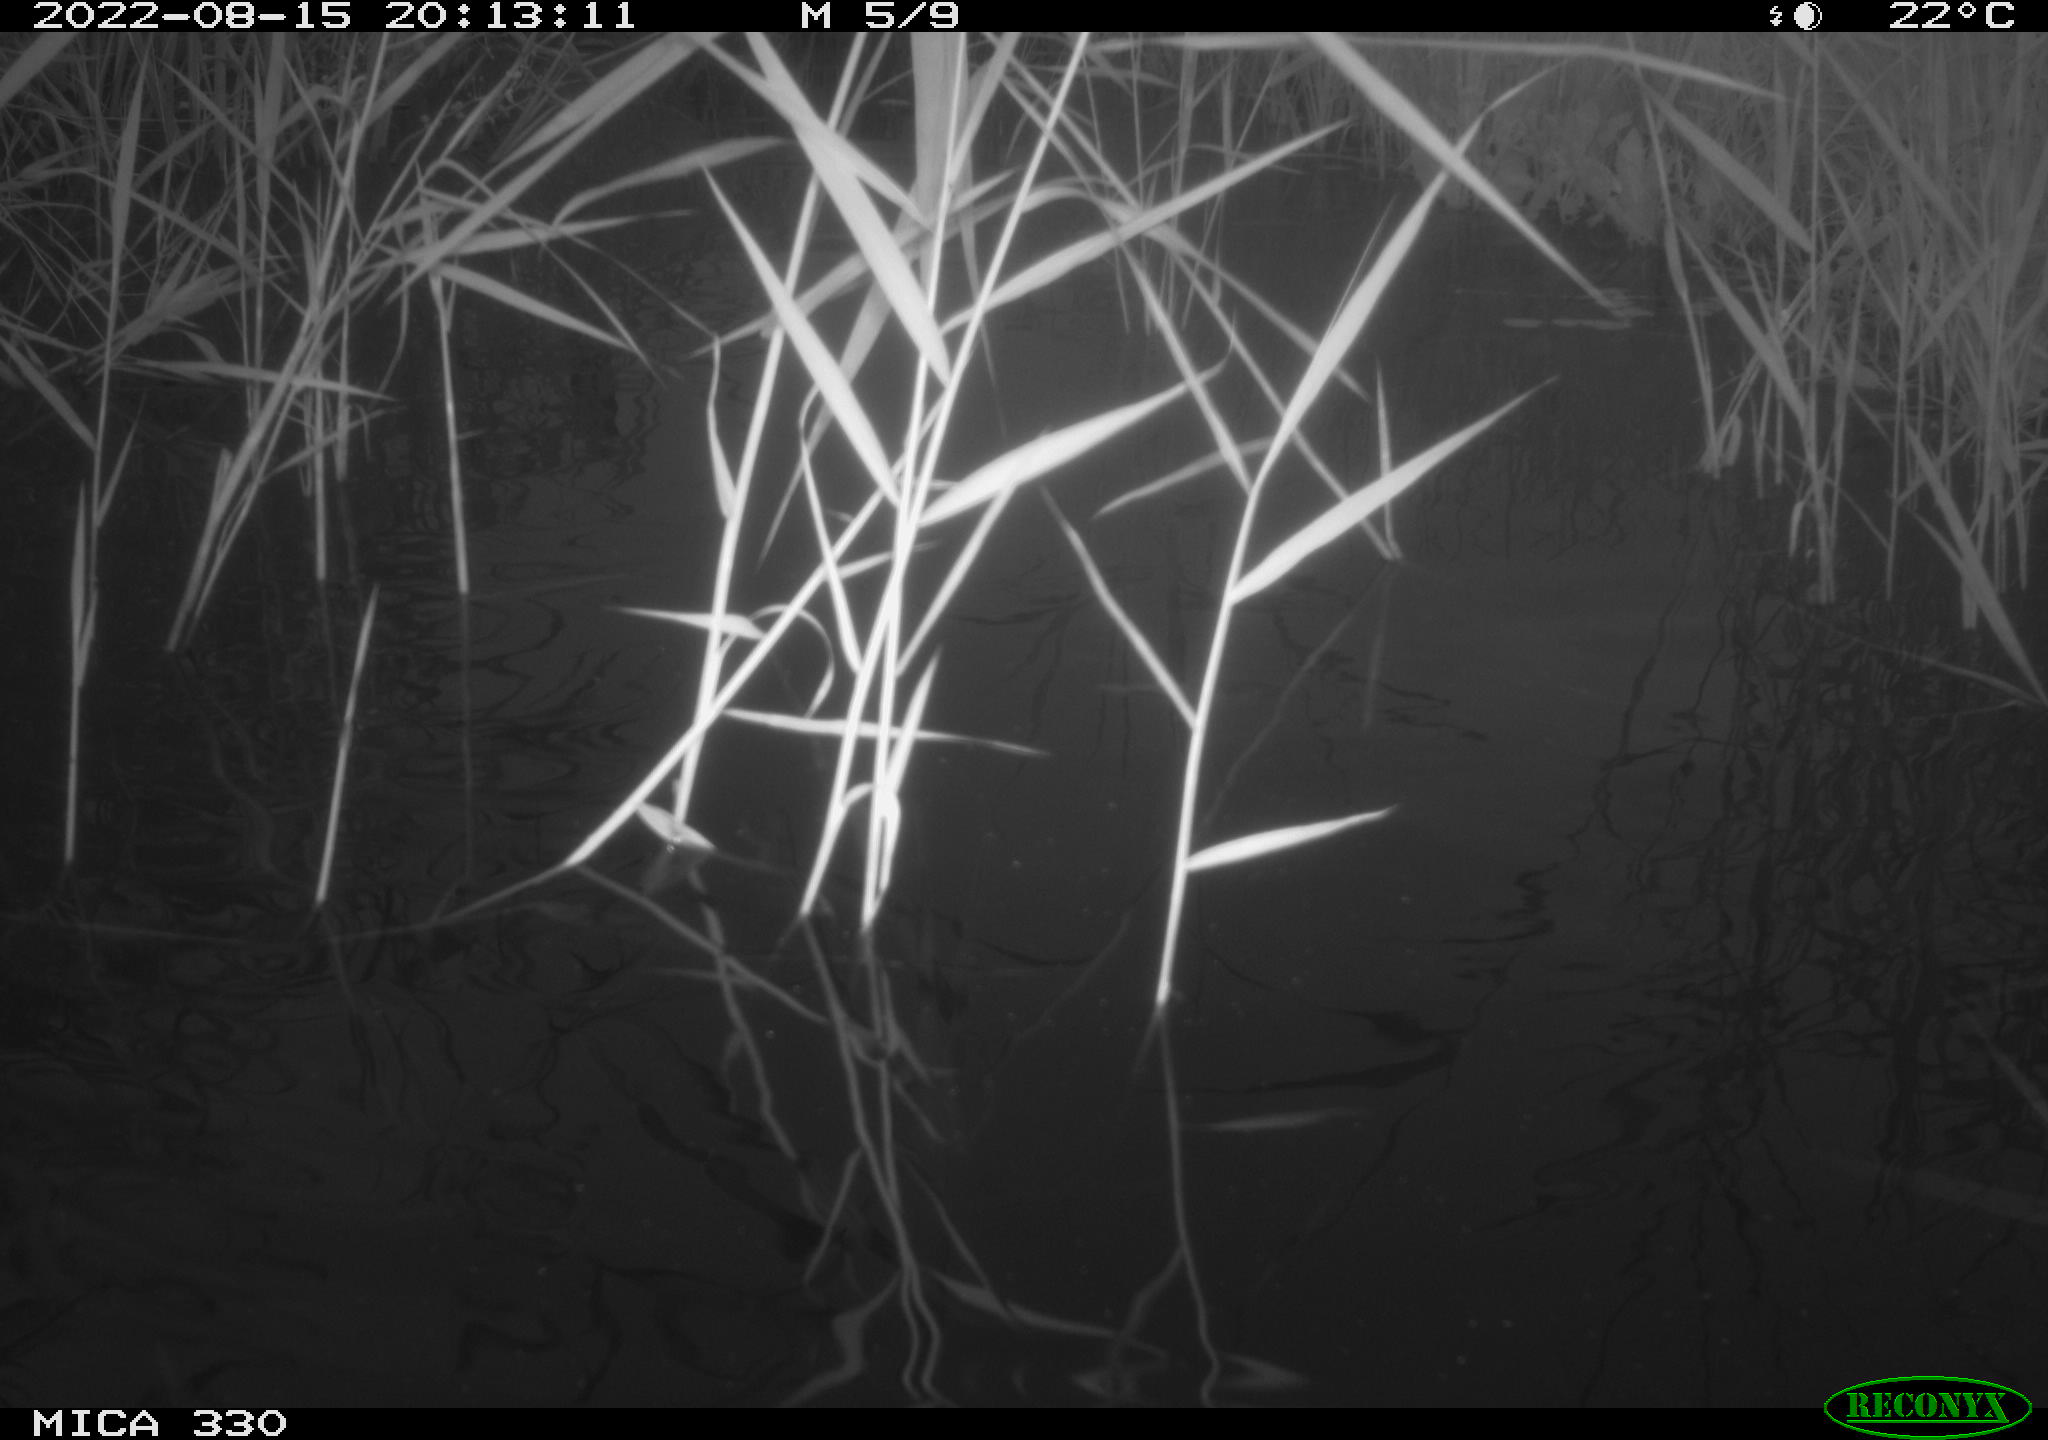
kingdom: Animalia
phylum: Chordata
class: Aves
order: Gruiformes
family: Rallidae
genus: Gallinula
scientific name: Gallinula chloropus
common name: Common moorhen
